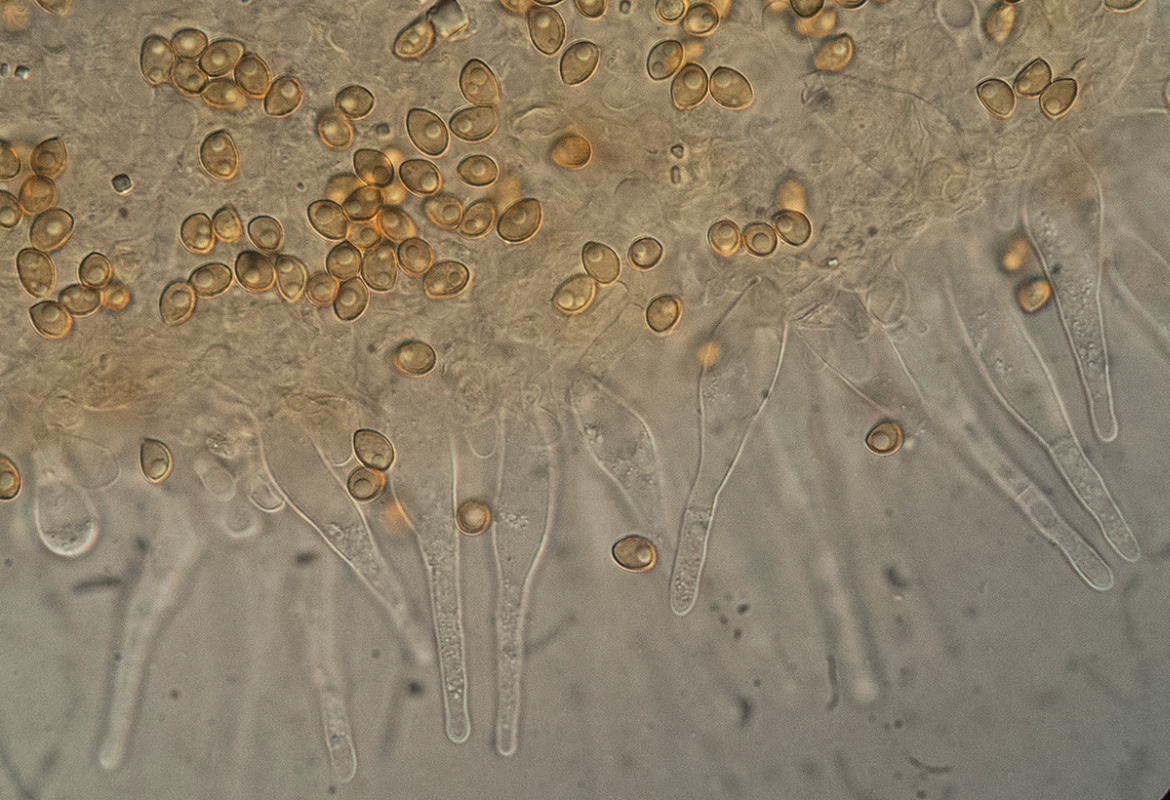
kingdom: Fungi
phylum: Basidiomycota
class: Agaricomycetes
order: Agaricales
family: Hymenogastraceae
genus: Galerina
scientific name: Galerina
